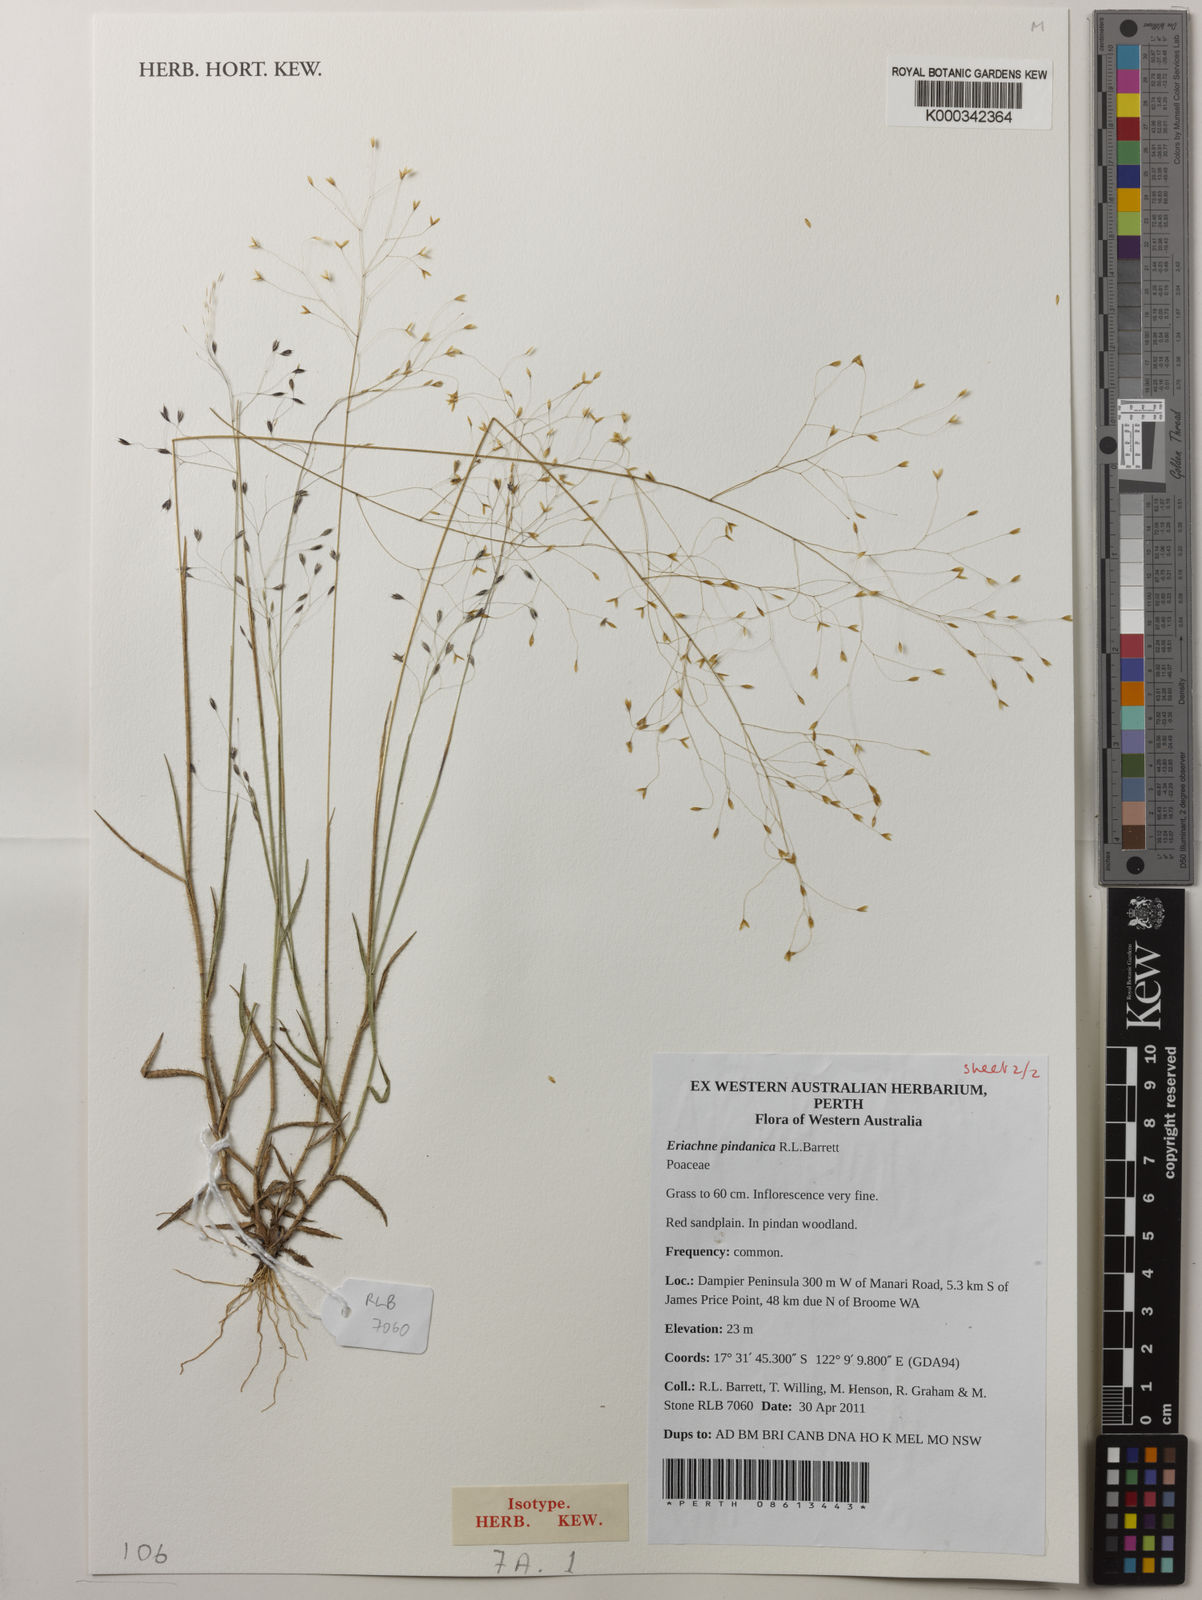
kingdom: Plantae
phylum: Tracheophyta
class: Liliopsida
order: Poales
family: Poaceae
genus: Eriachne
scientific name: Eriachne pindanica
